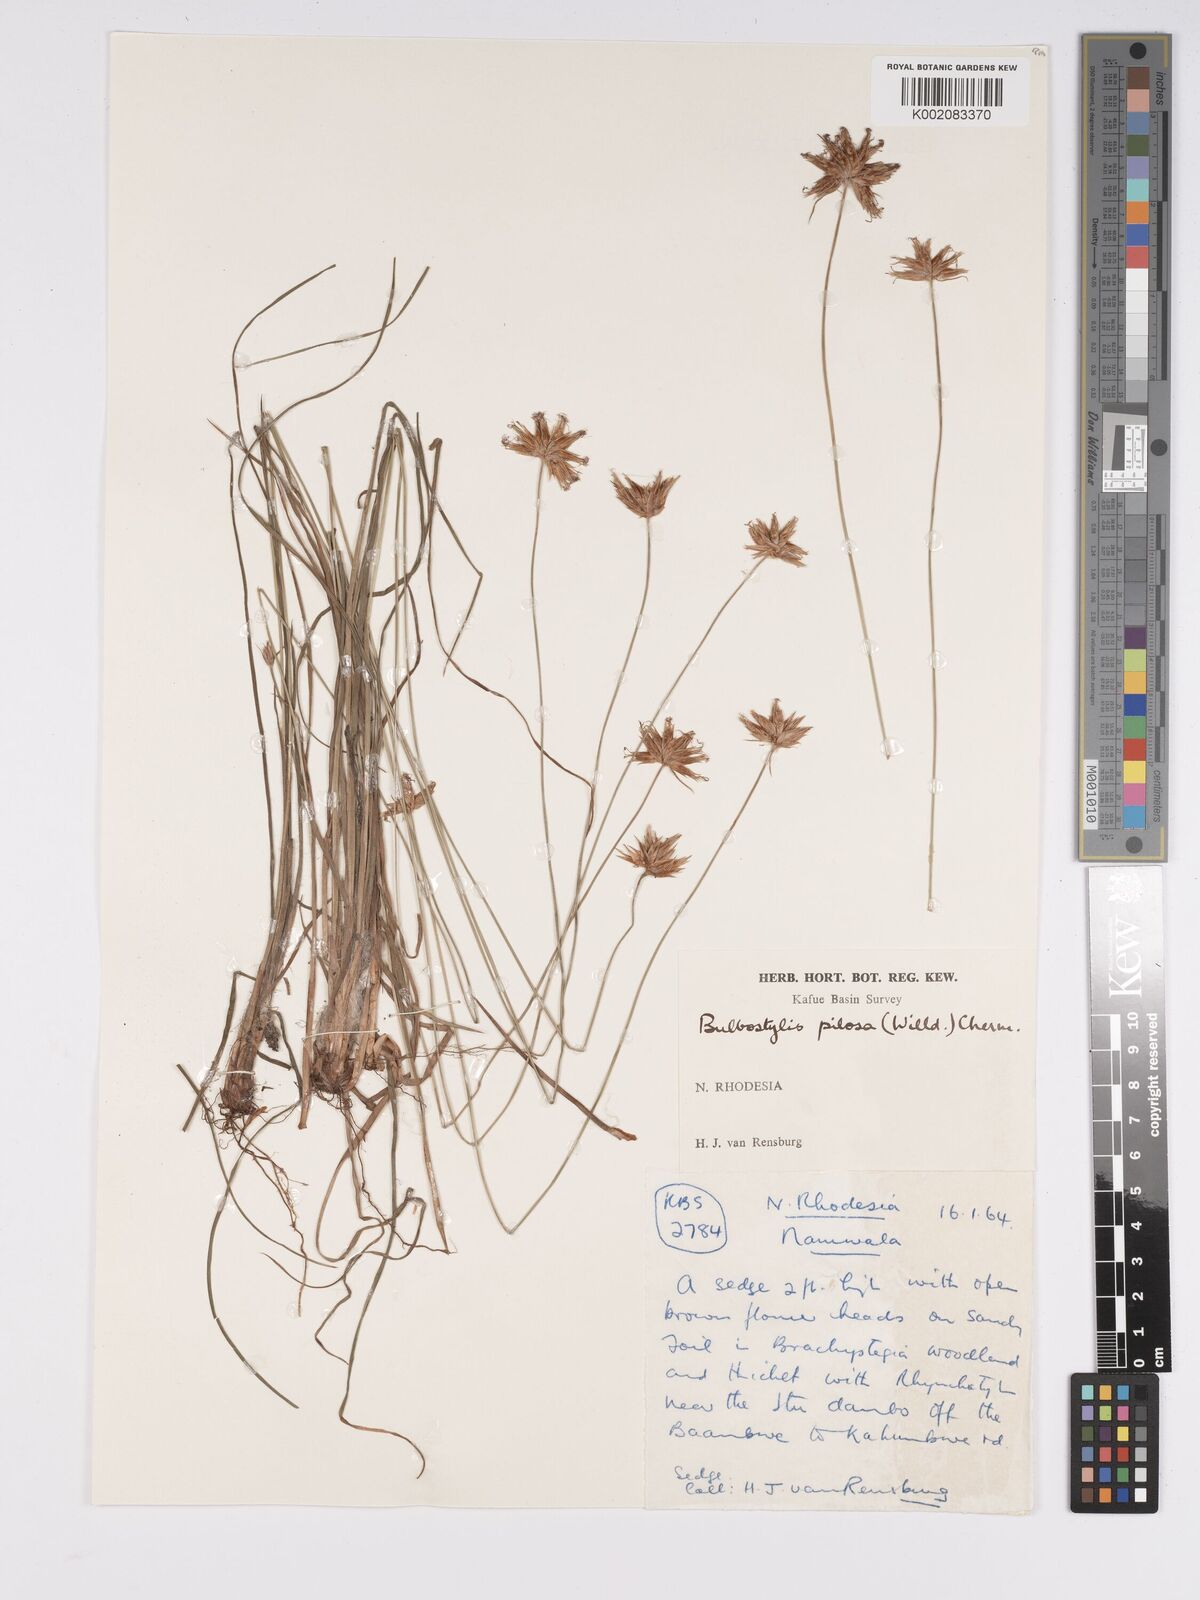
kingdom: Plantae
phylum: Tracheophyta
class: Liliopsida
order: Poales
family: Cyperaceae
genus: Bulbostylis
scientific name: Bulbostylis pilosa
